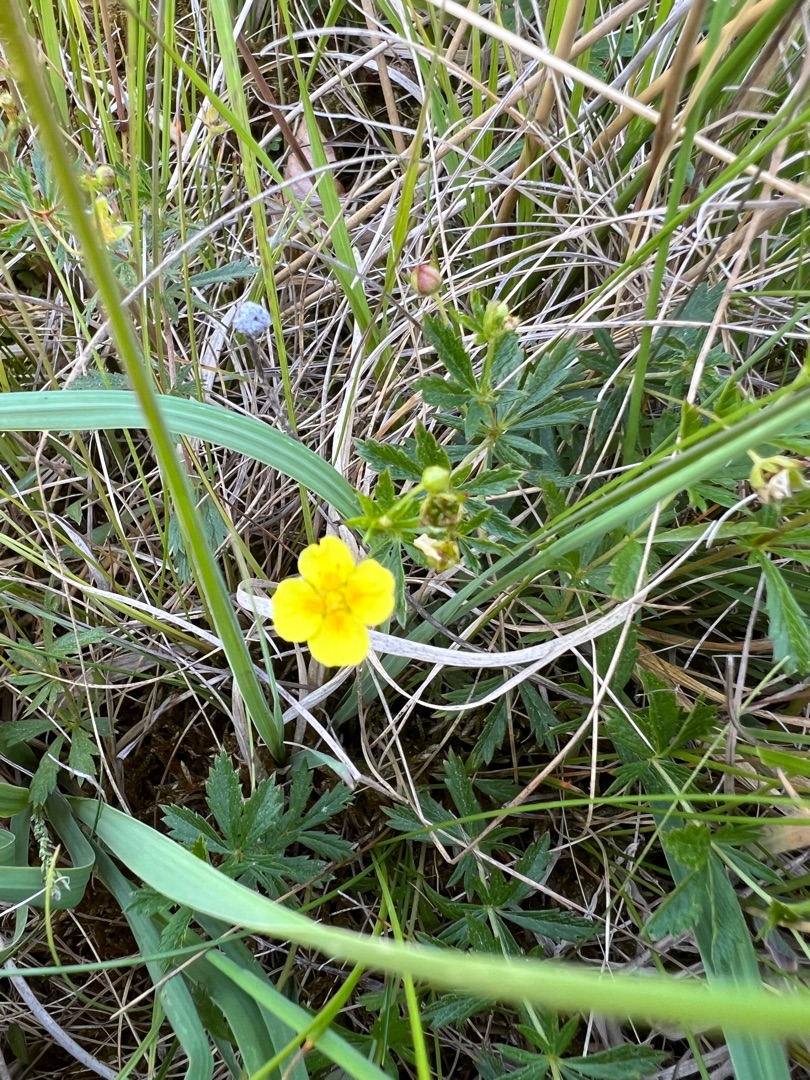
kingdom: Plantae
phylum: Tracheophyta
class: Magnoliopsida
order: Rosales
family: Rosaceae
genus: Potentilla
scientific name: Potentilla erecta
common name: Tormentil
